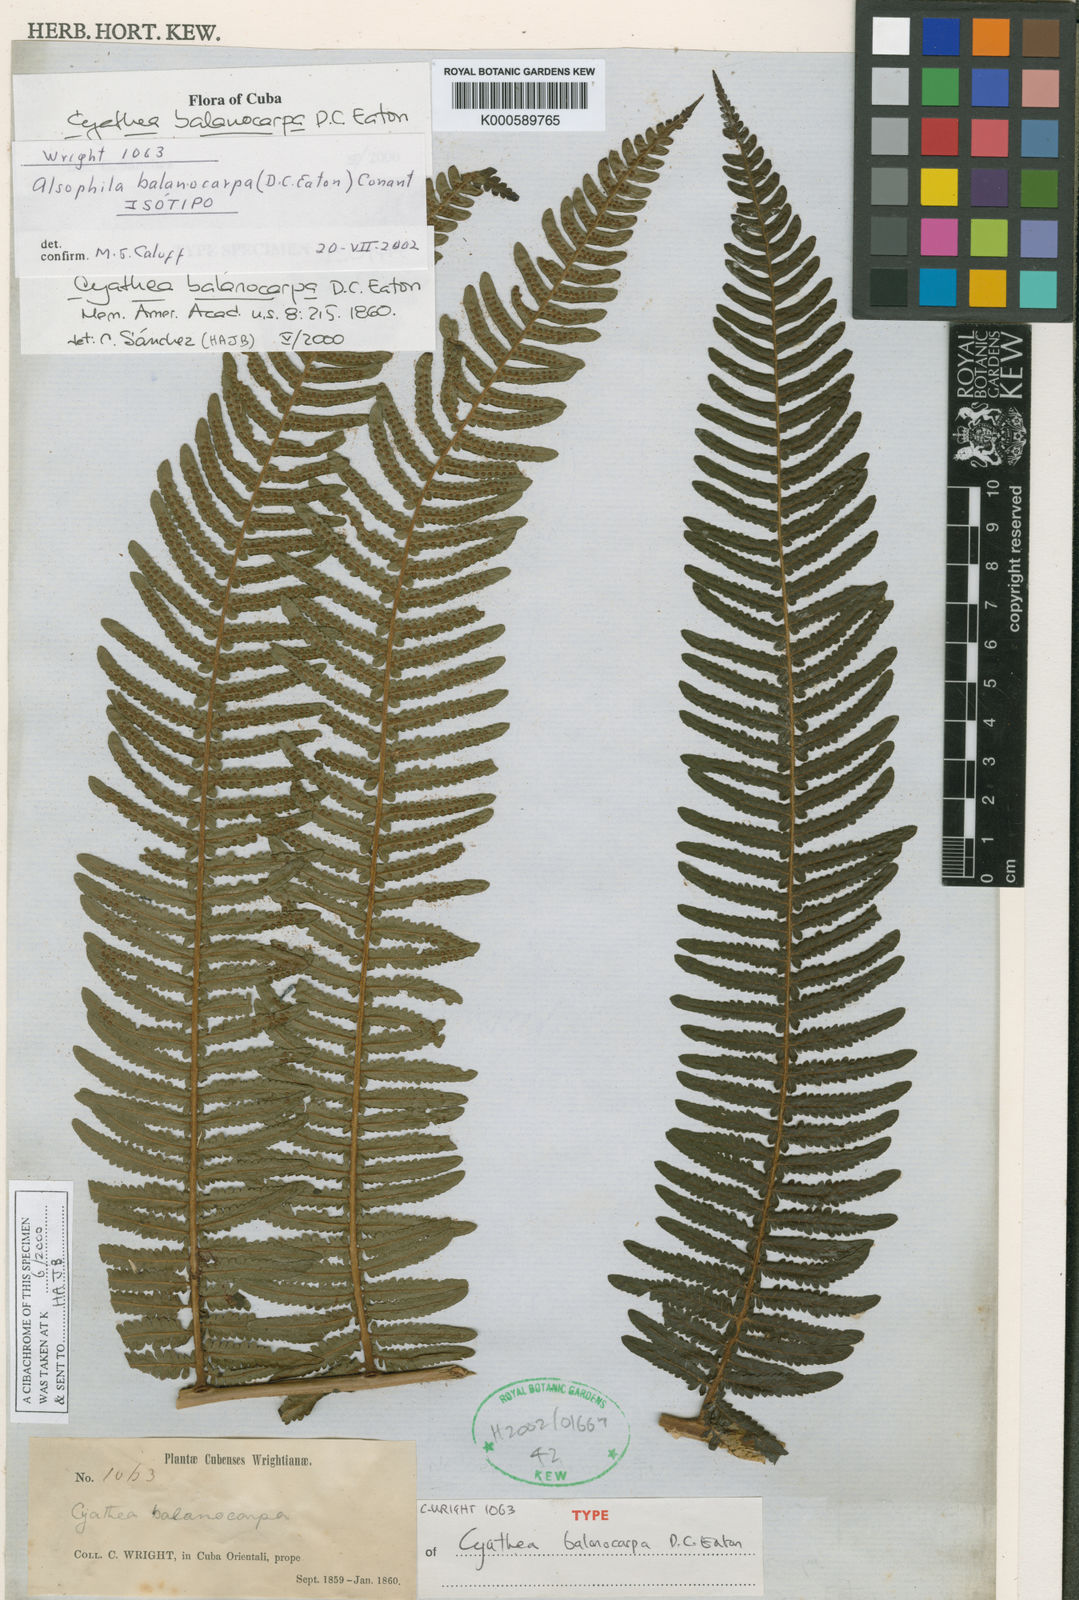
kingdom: Plantae
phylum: Tracheophyta
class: Polypodiopsida
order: Cyatheales
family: Cyatheaceae
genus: Alsophila
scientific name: Alsophila balanocarpa
